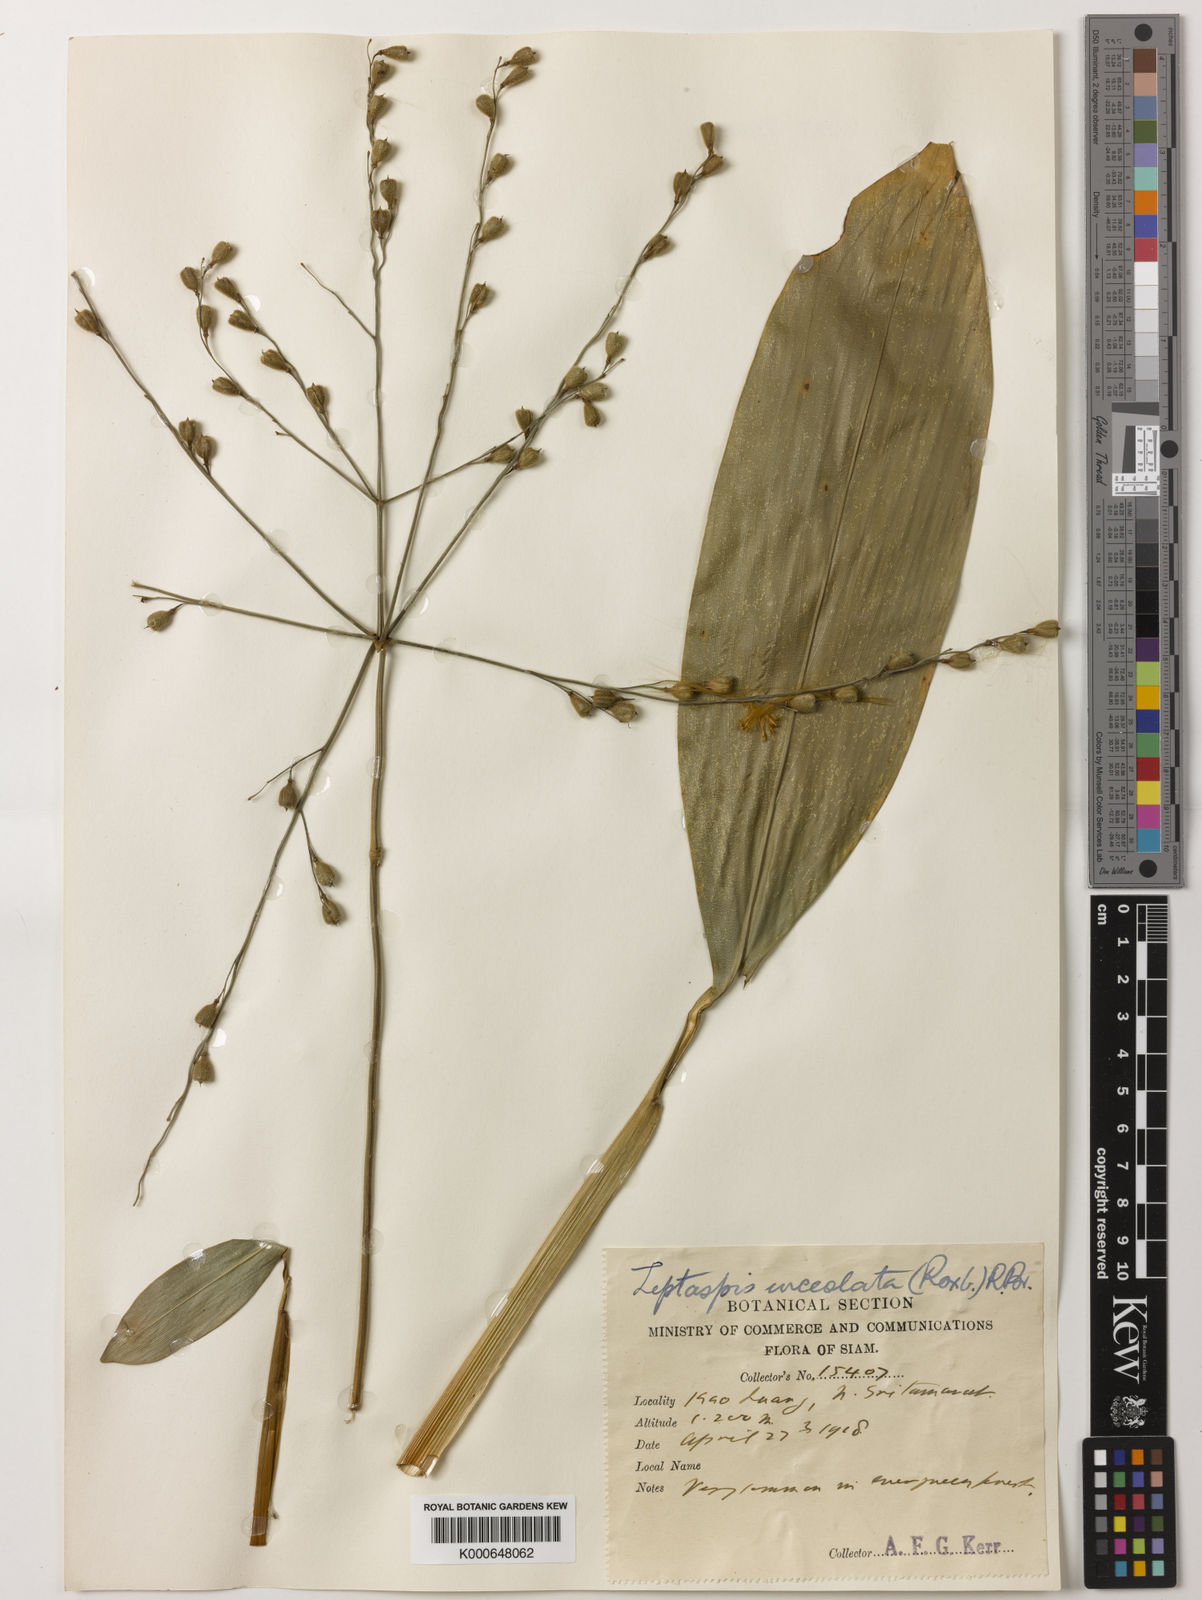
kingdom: Plantae
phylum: Tracheophyta
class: Liliopsida
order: Poales
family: Poaceae
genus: Scrotochloa
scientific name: Scrotochloa urceolata
